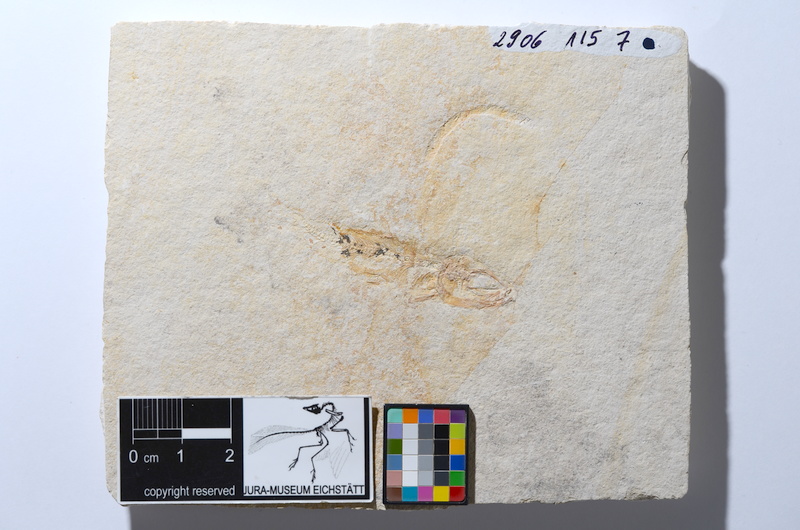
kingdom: Animalia
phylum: Chordata
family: Ascalaboidae
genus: Tharsis
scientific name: Tharsis dubius
